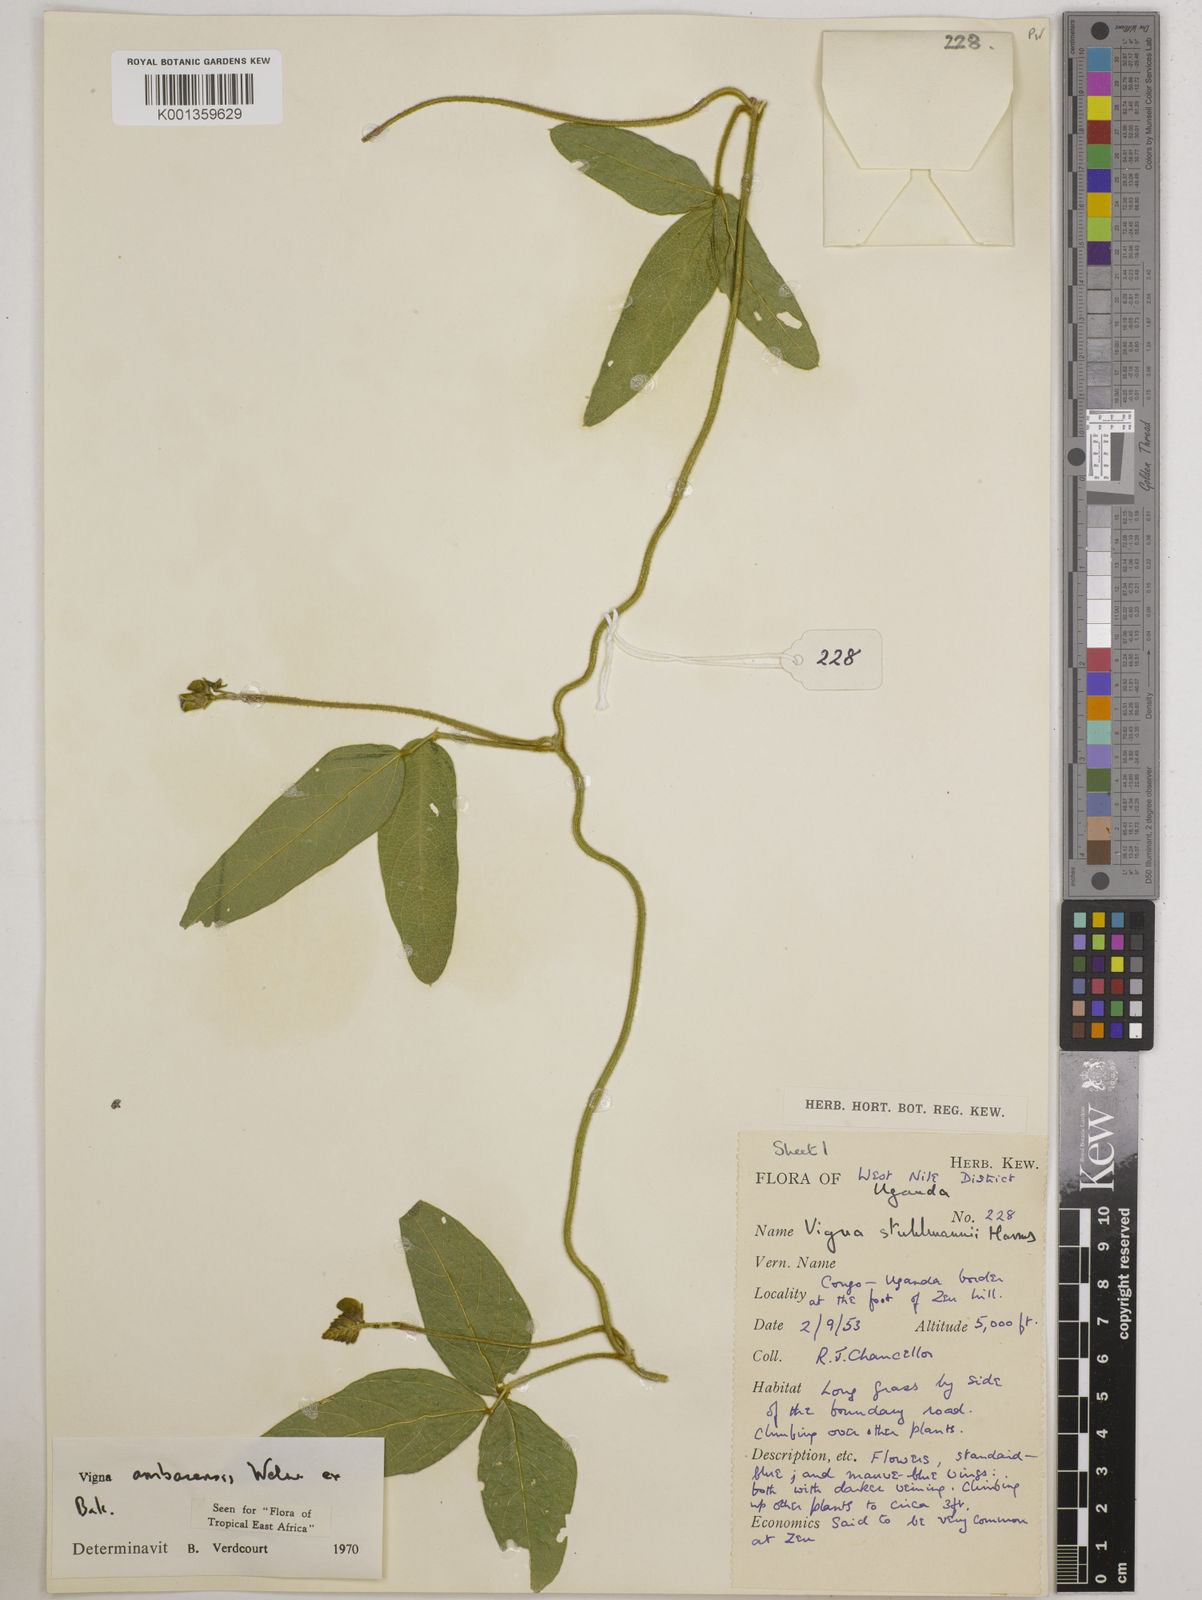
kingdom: Plantae
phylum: Tracheophyta
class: Magnoliopsida
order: Fabales
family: Fabaceae
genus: Vigna
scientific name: Vigna ambacensis
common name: Tsarkiyan zomo
